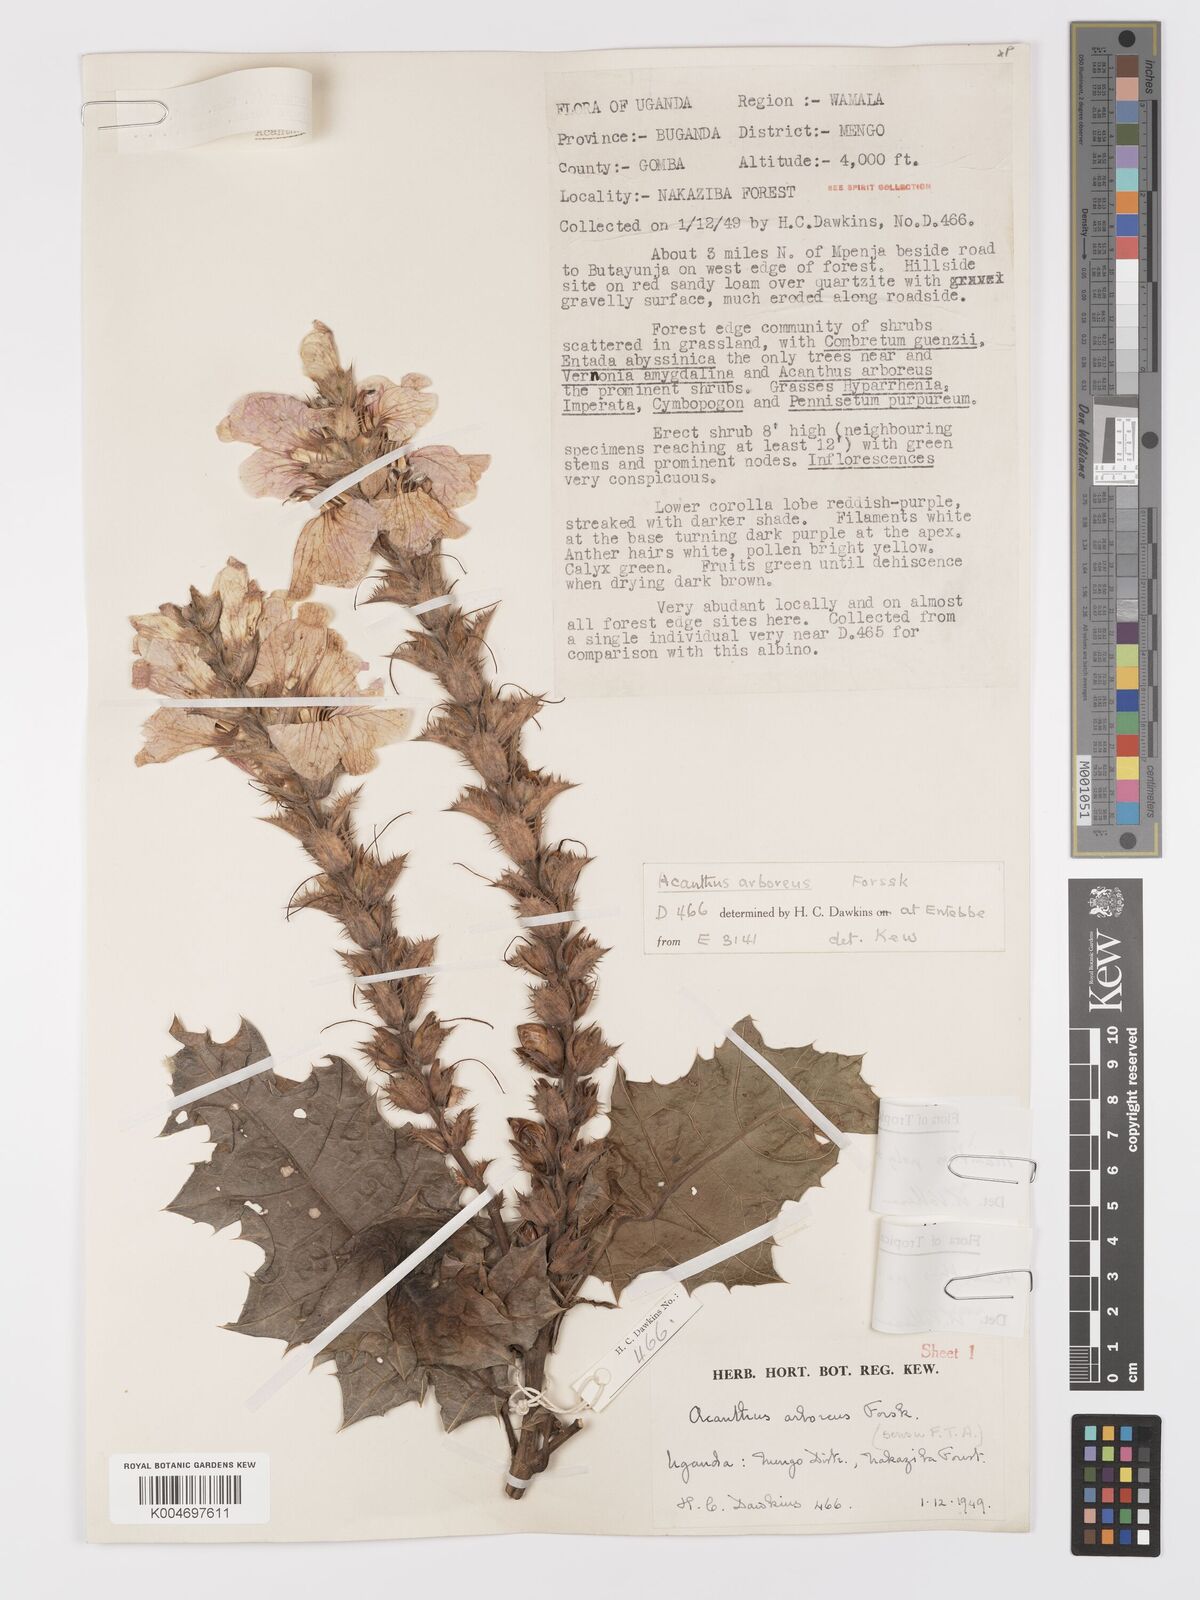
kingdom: Plantae
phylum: Tracheophyta
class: Magnoliopsida
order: Lamiales
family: Acanthaceae
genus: Acanthus
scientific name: Acanthus polystachyus
